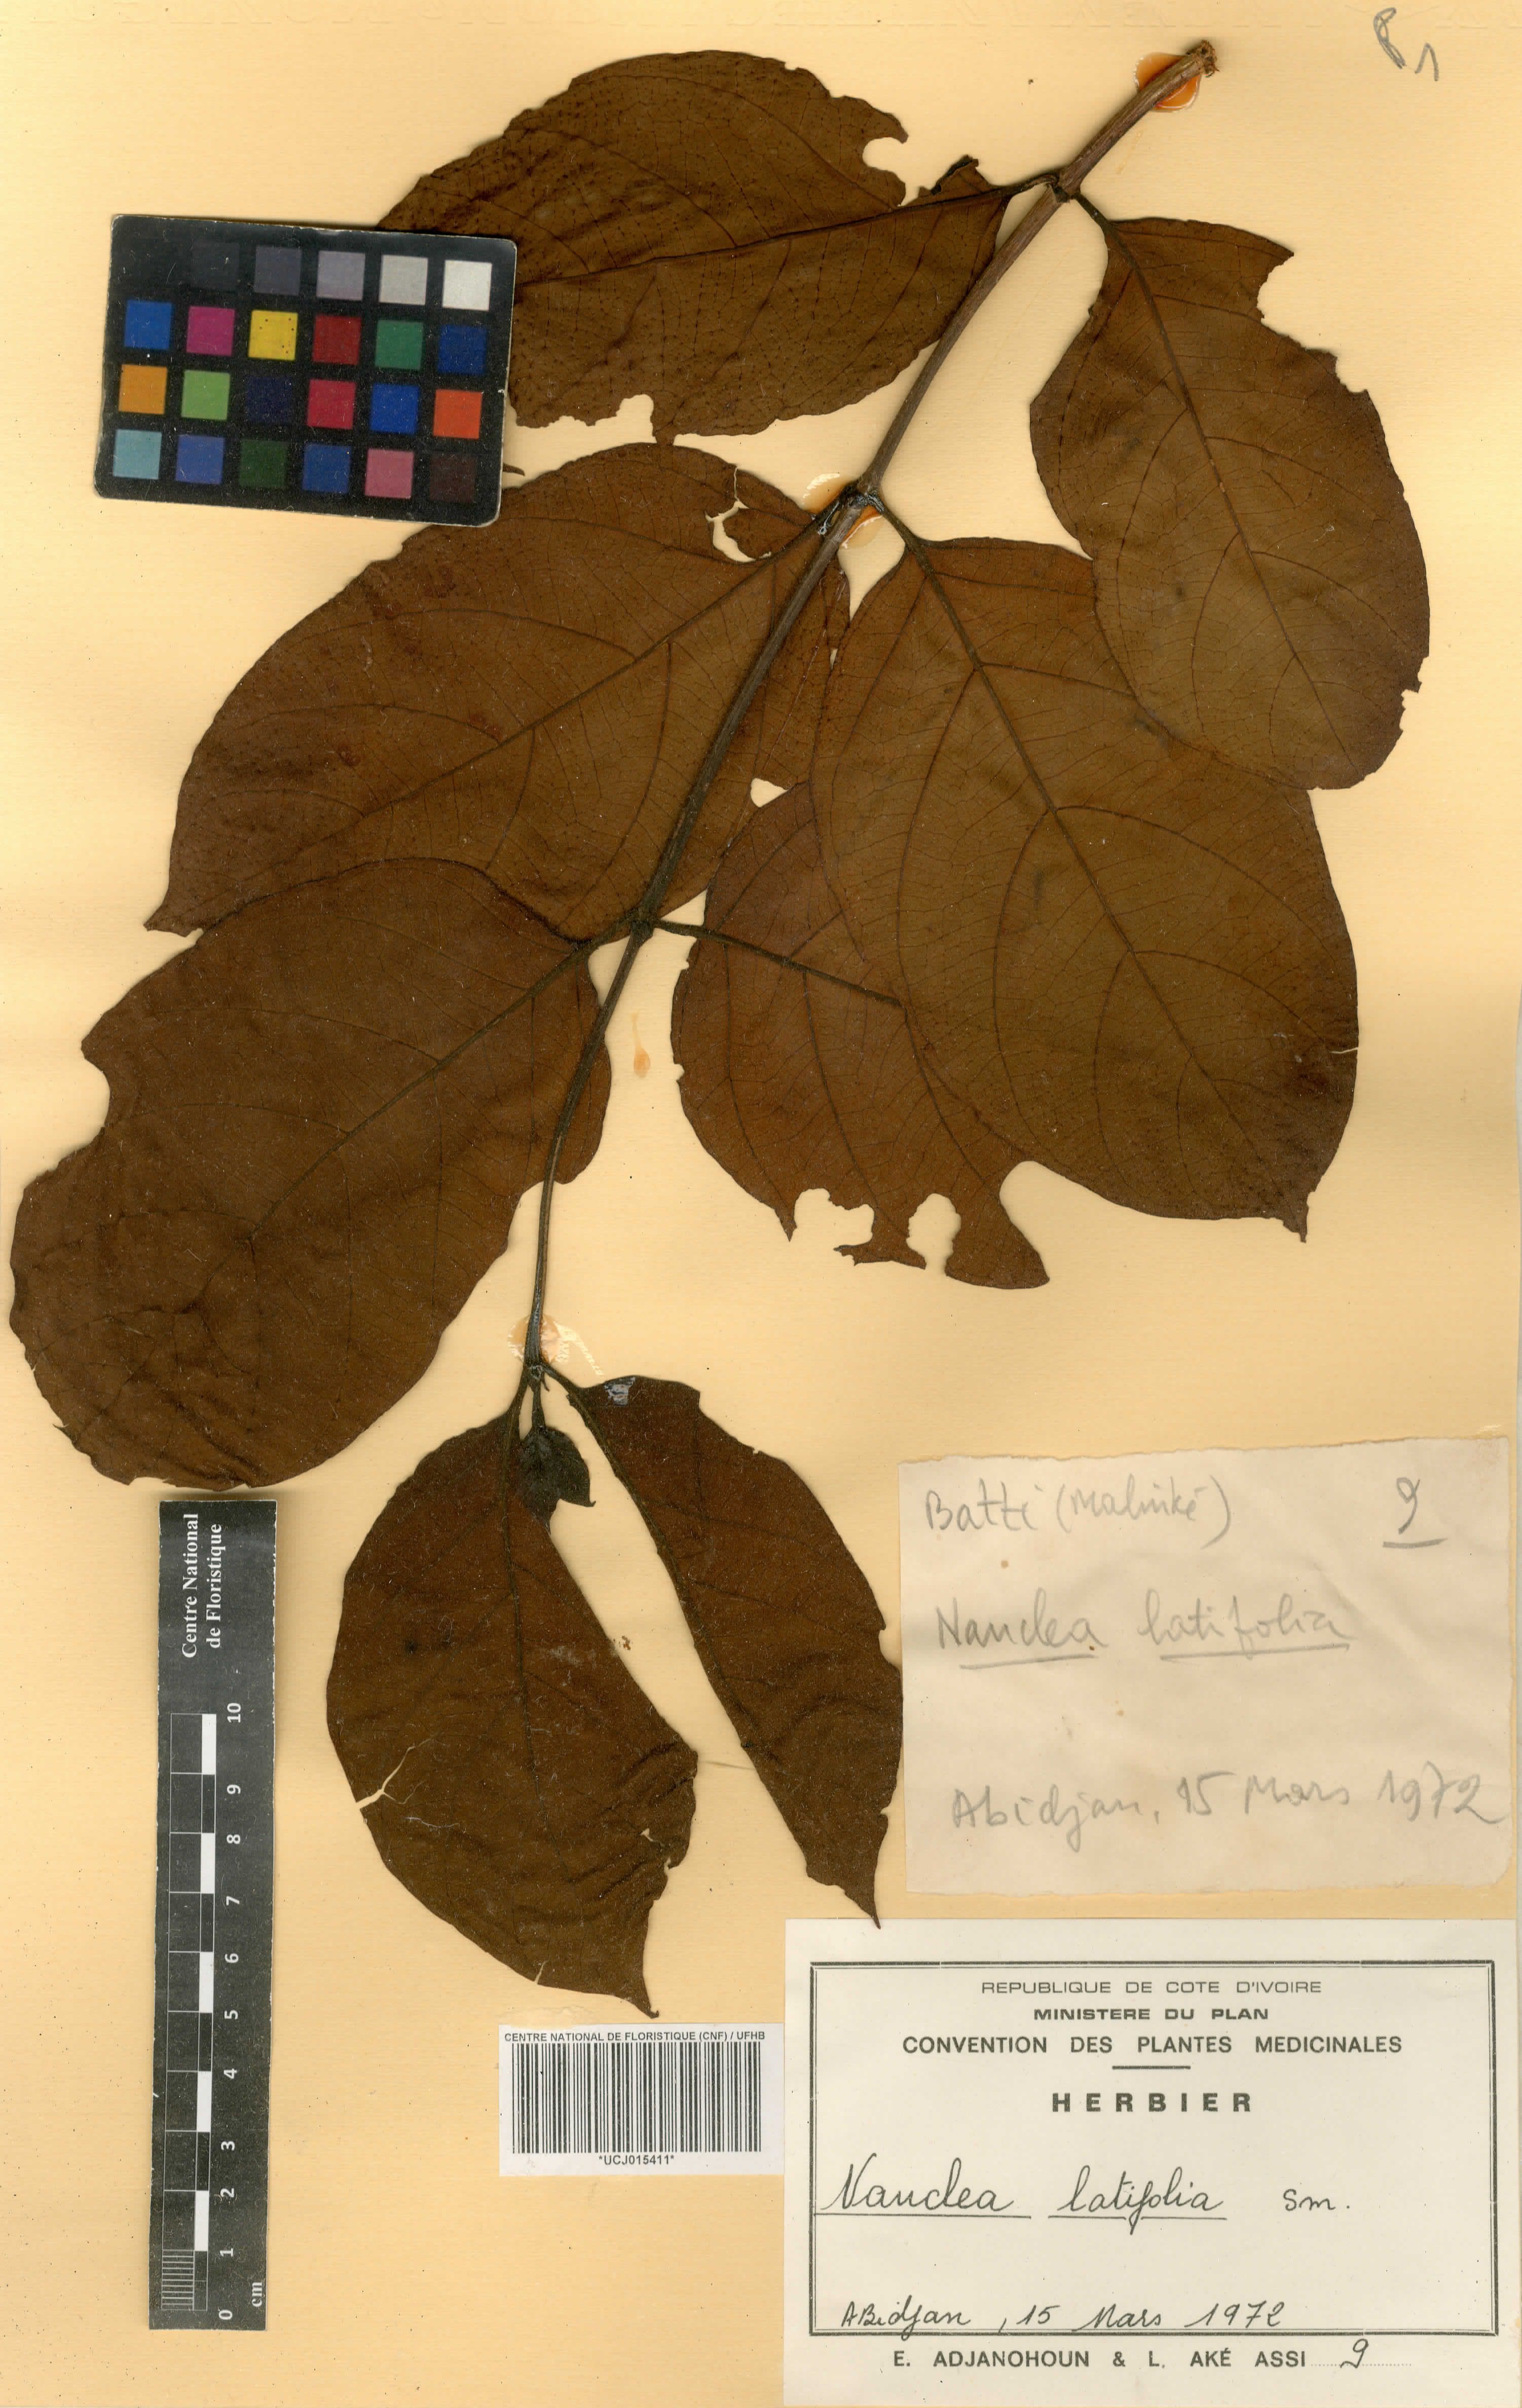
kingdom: Plantae
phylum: Tracheophyta
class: Magnoliopsida
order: Gentianales
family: Rubiaceae
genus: Nauclea
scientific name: Nauclea latifolia
